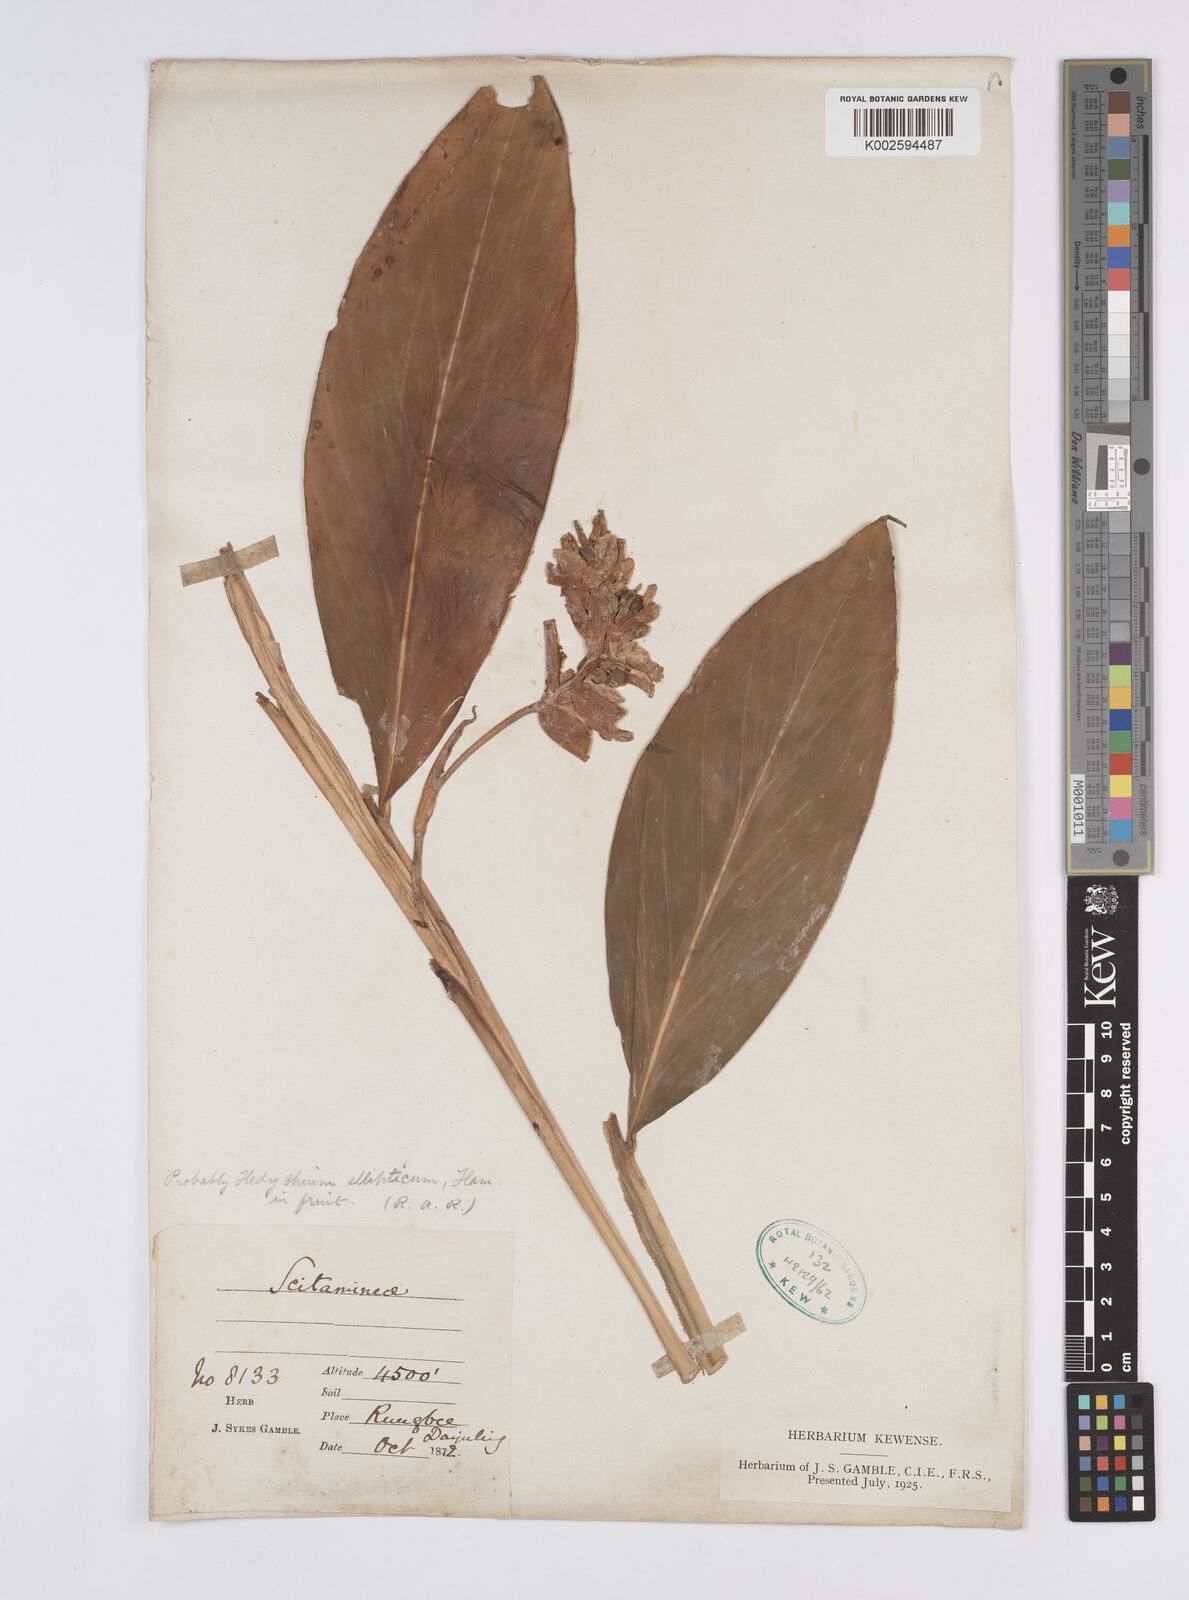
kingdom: Plantae
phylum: Tracheophyta
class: Liliopsida
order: Zingiberales
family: Zingiberaceae
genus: Hedychium
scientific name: Hedychium ellipticum
